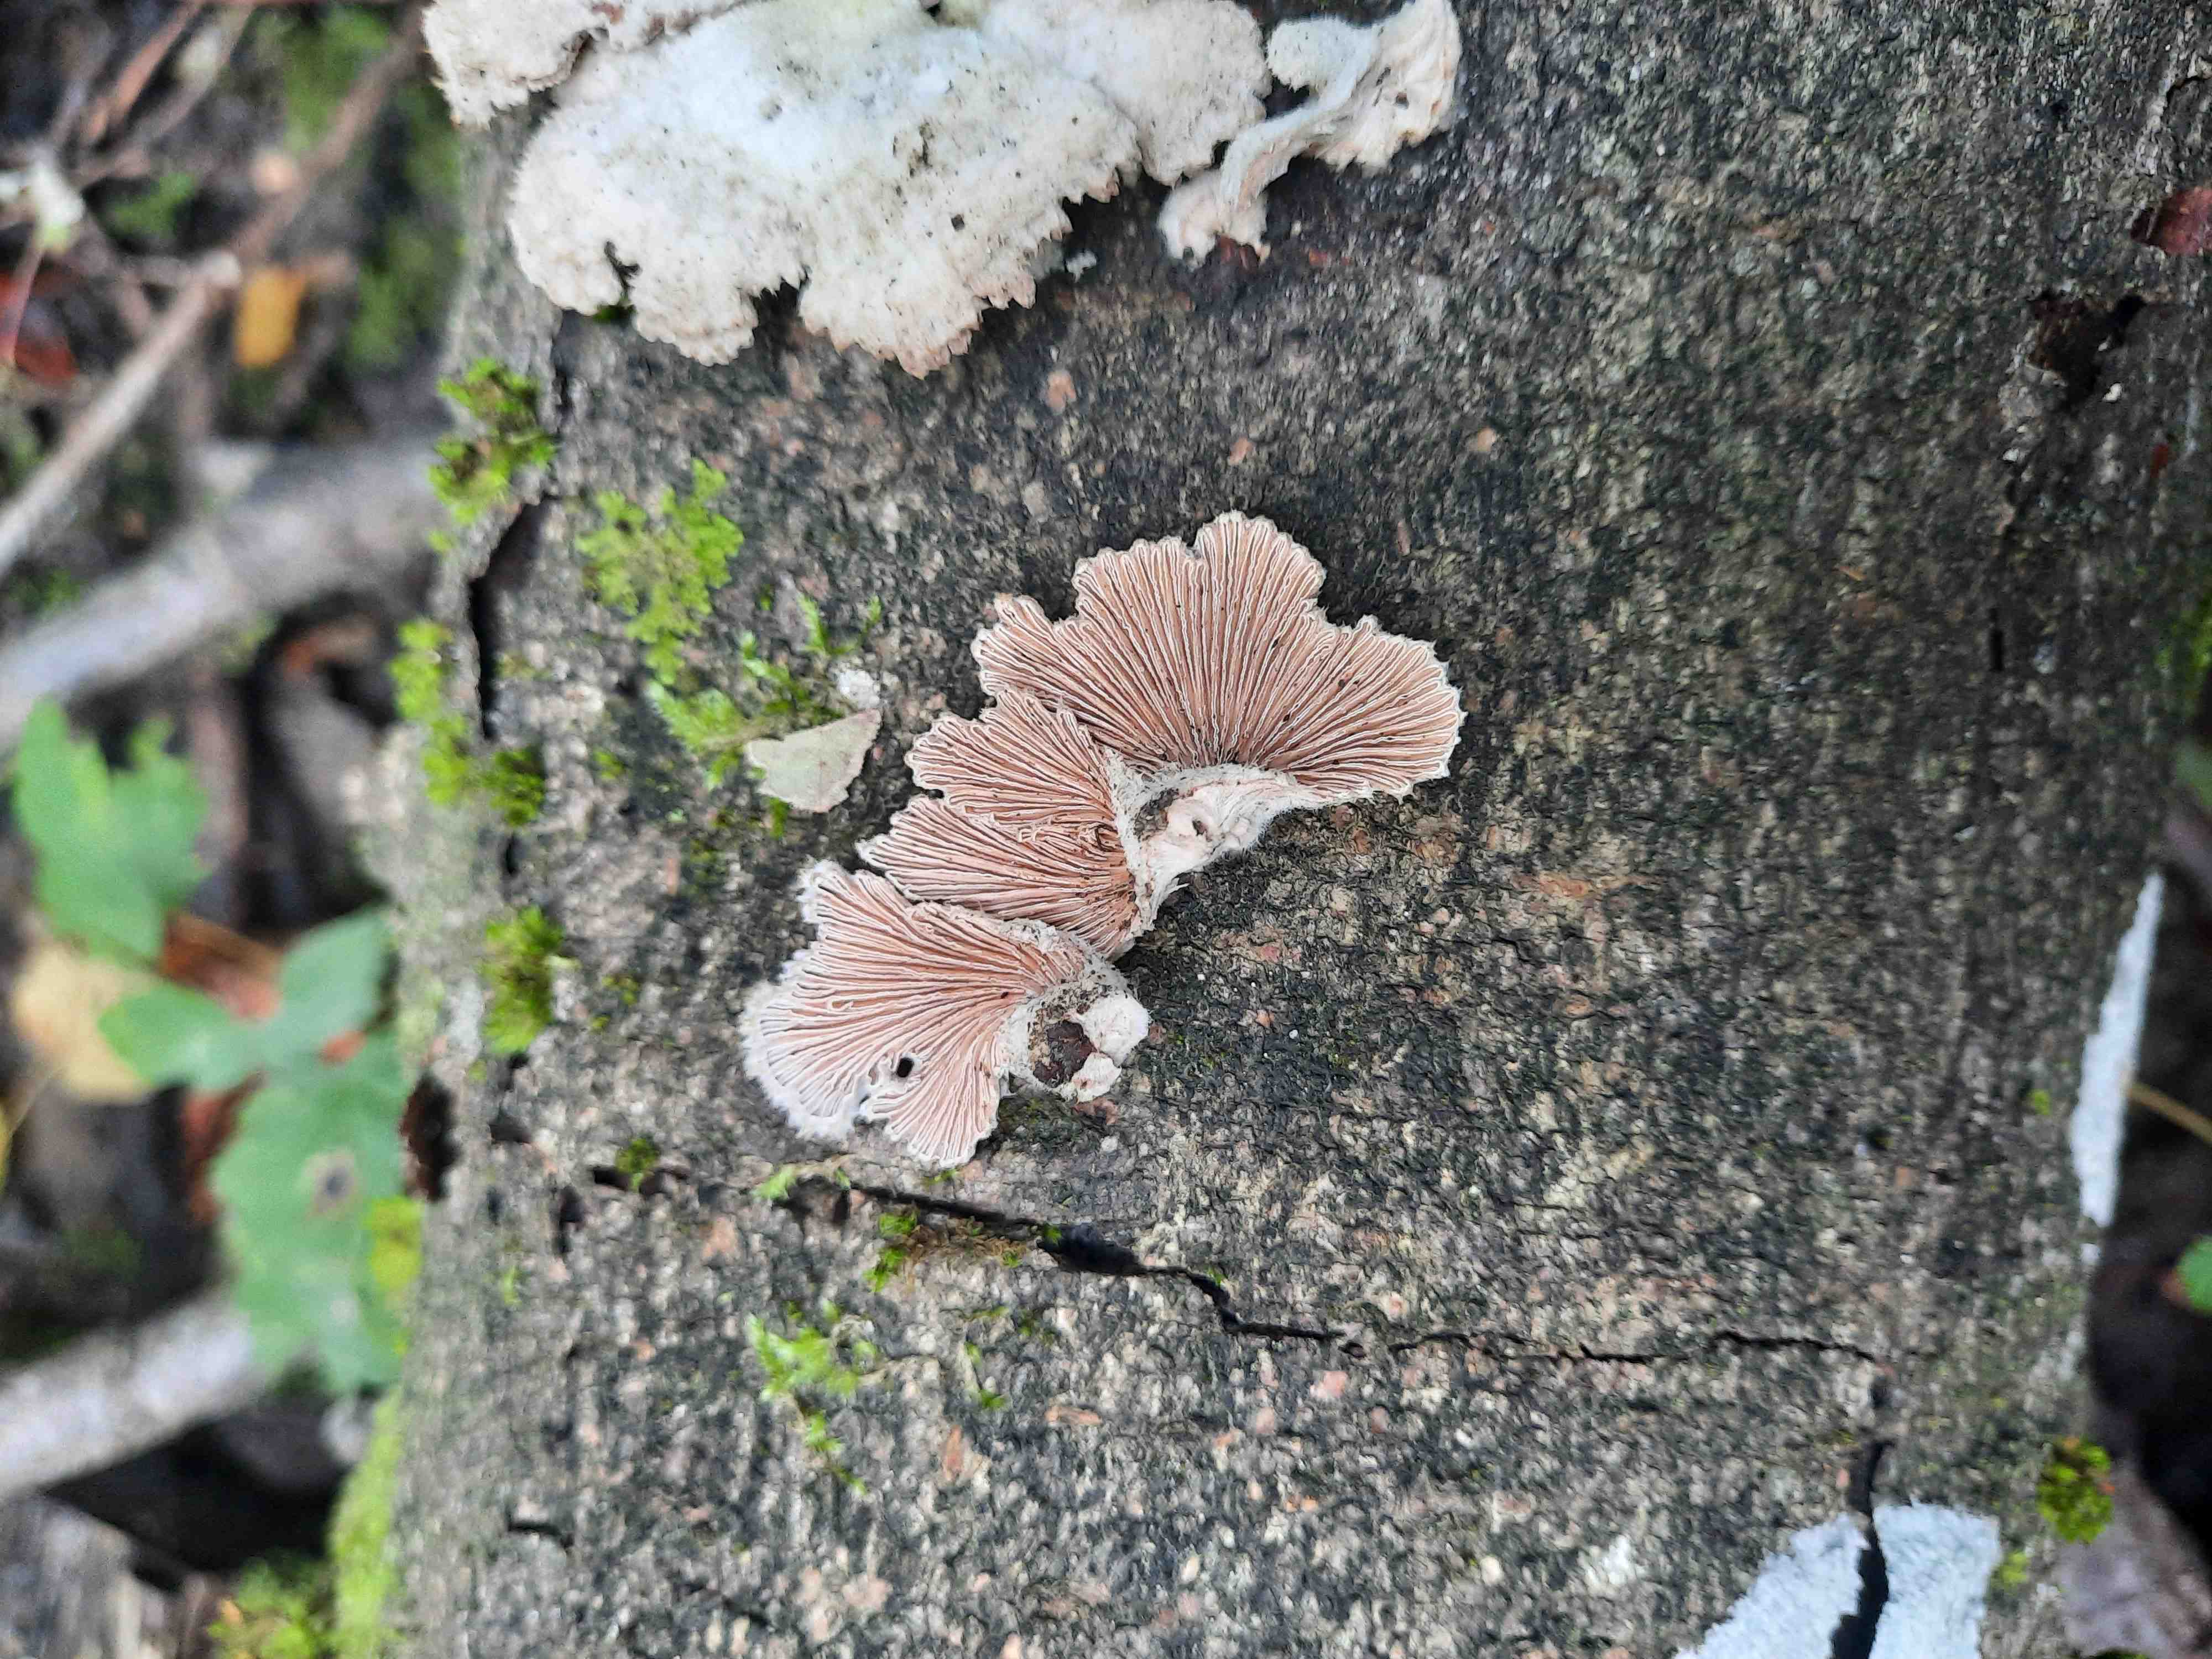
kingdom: Fungi
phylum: Basidiomycota
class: Agaricomycetes
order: Agaricales
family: Schizophyllaceae
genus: Schizophyllum
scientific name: Schizophyllum commune
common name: kløvblad
